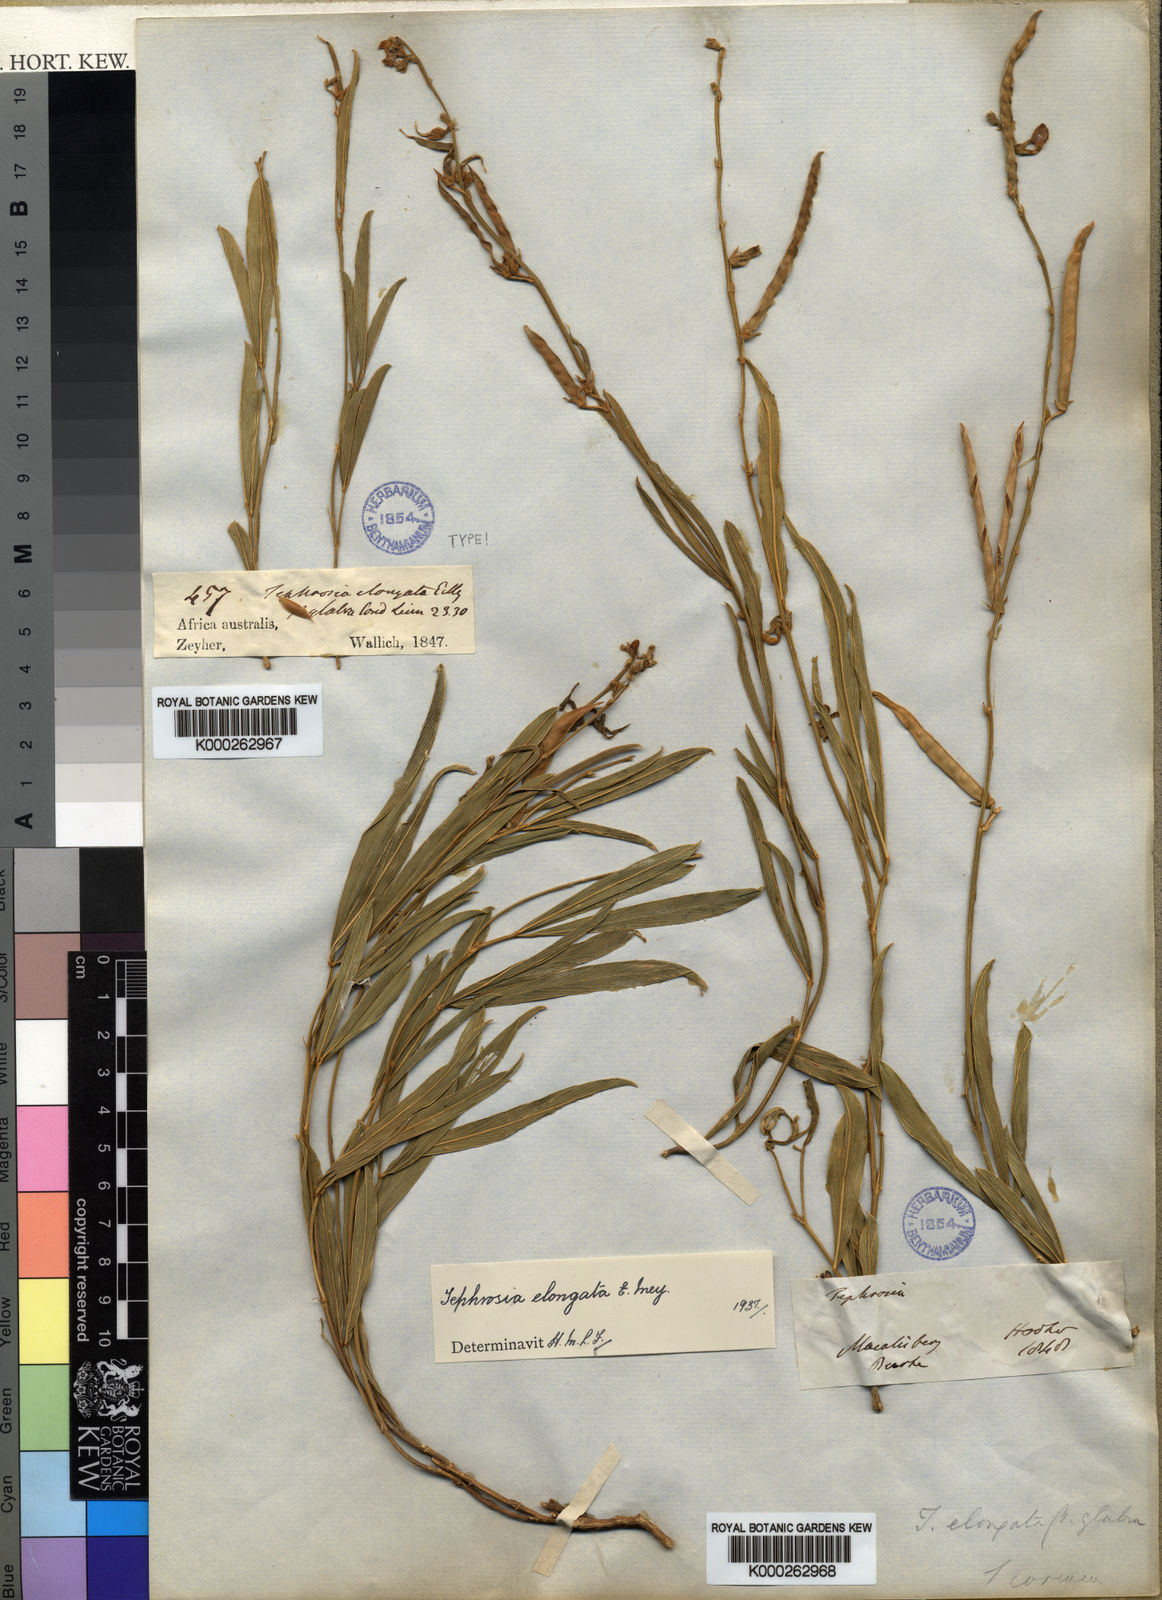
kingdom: Plantae
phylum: Tracheophyta
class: Magnoliopsida
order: Fabales
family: Fabaceae
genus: Tephrosia
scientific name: Tephrosia elongata
